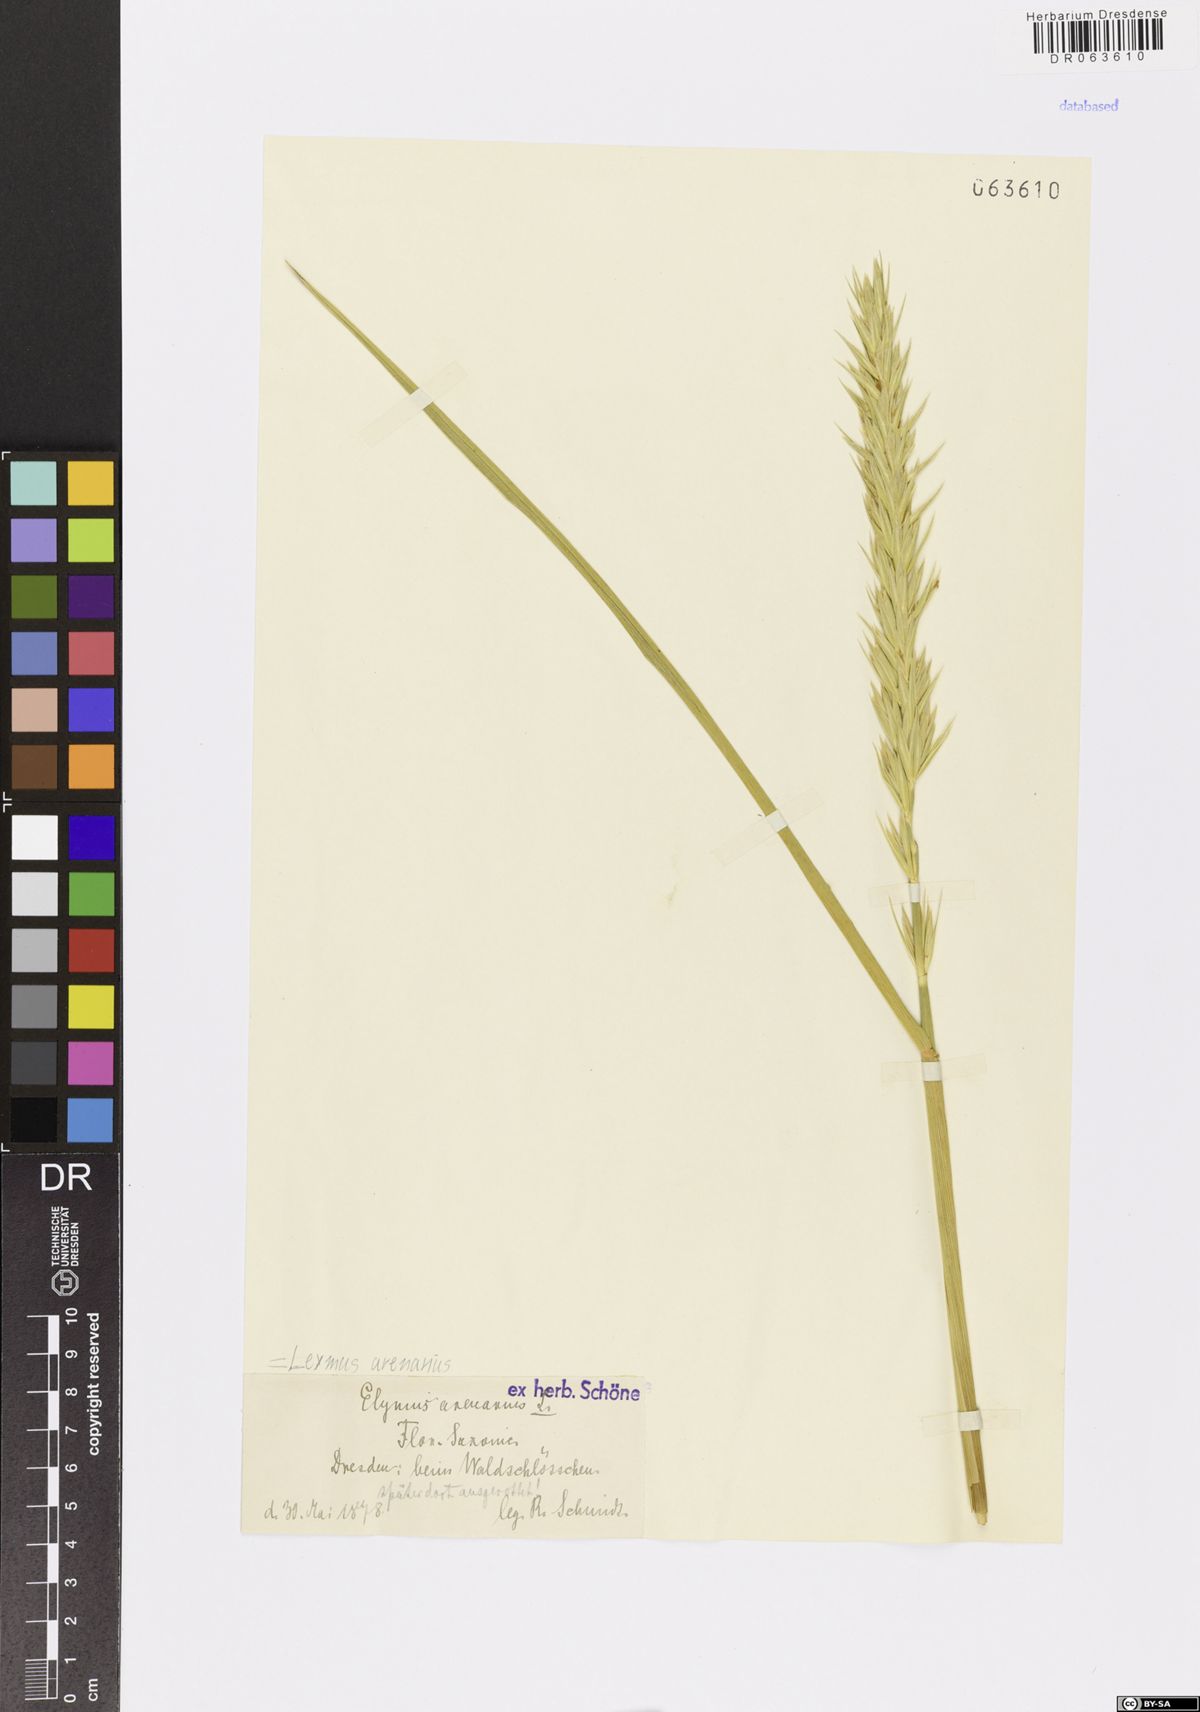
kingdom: Plantae
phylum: Tracheophyta
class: Liliopsida
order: Poales
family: Poaceae
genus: Leymus
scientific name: Leymus arenarius
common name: Lyme-grass
